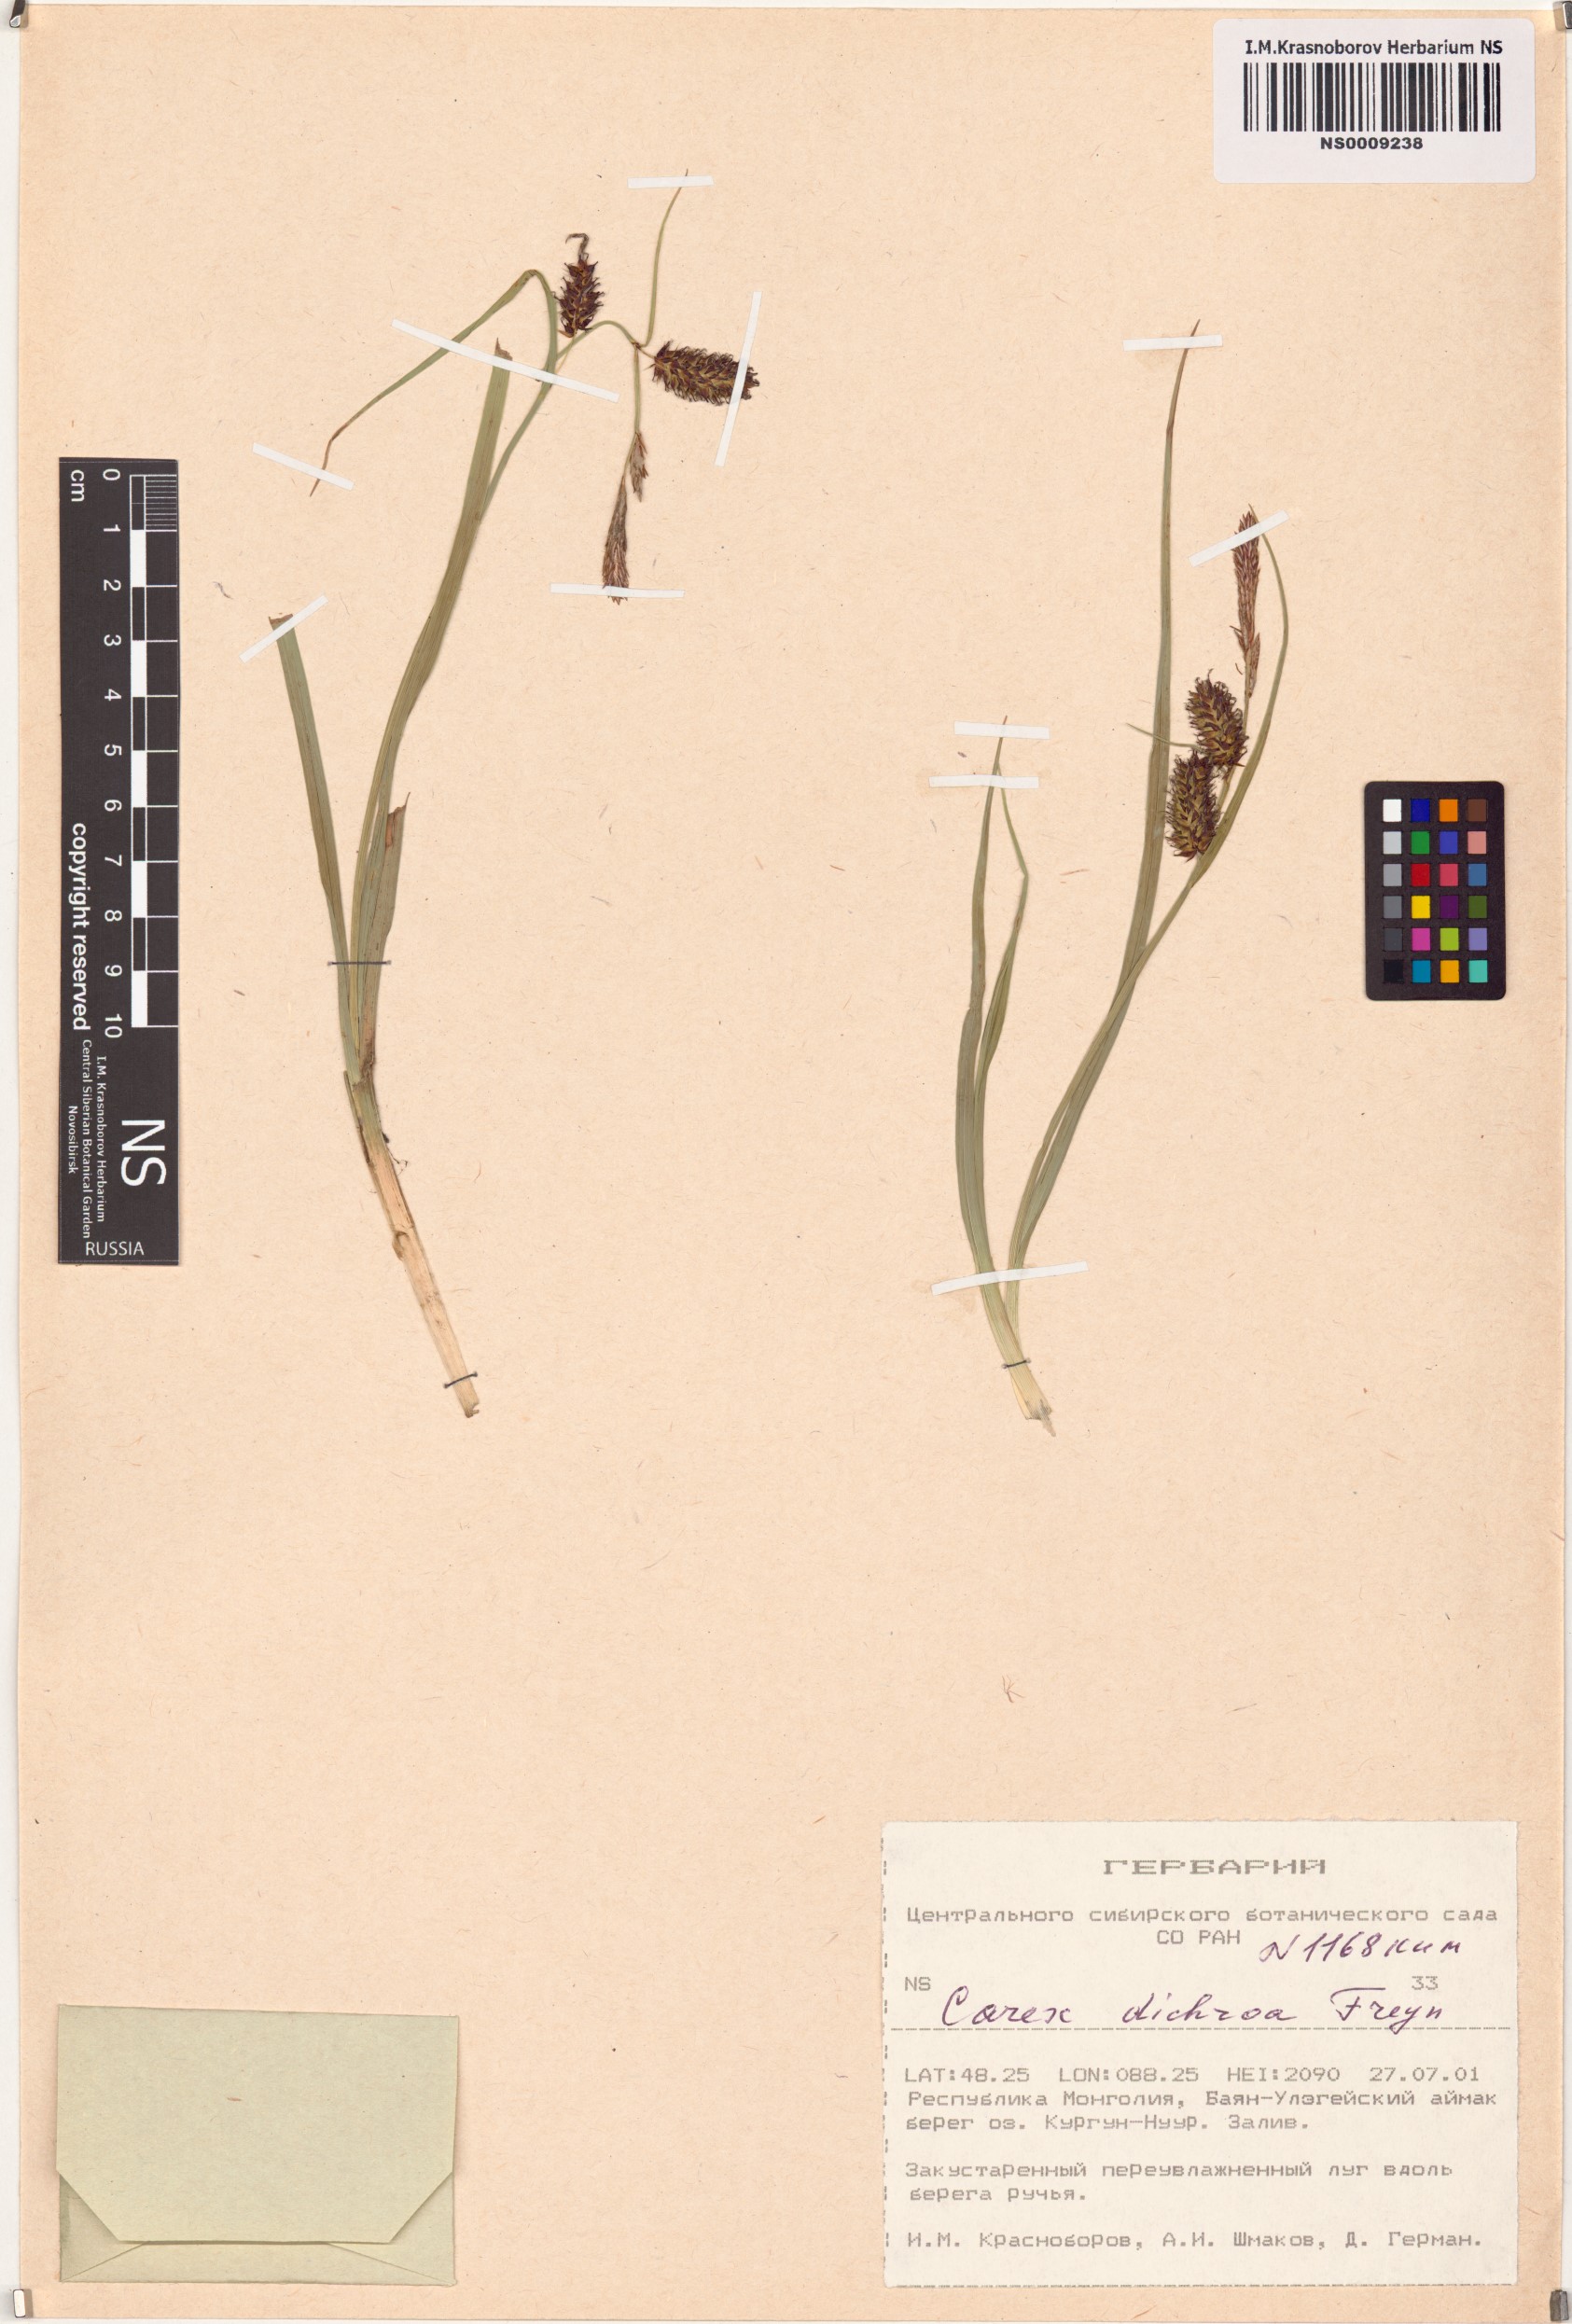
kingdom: Plantae
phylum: Tracheophyta
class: Liliopsida
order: Poales
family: Cyperaceae
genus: Carex
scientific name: Carex pamirensis
